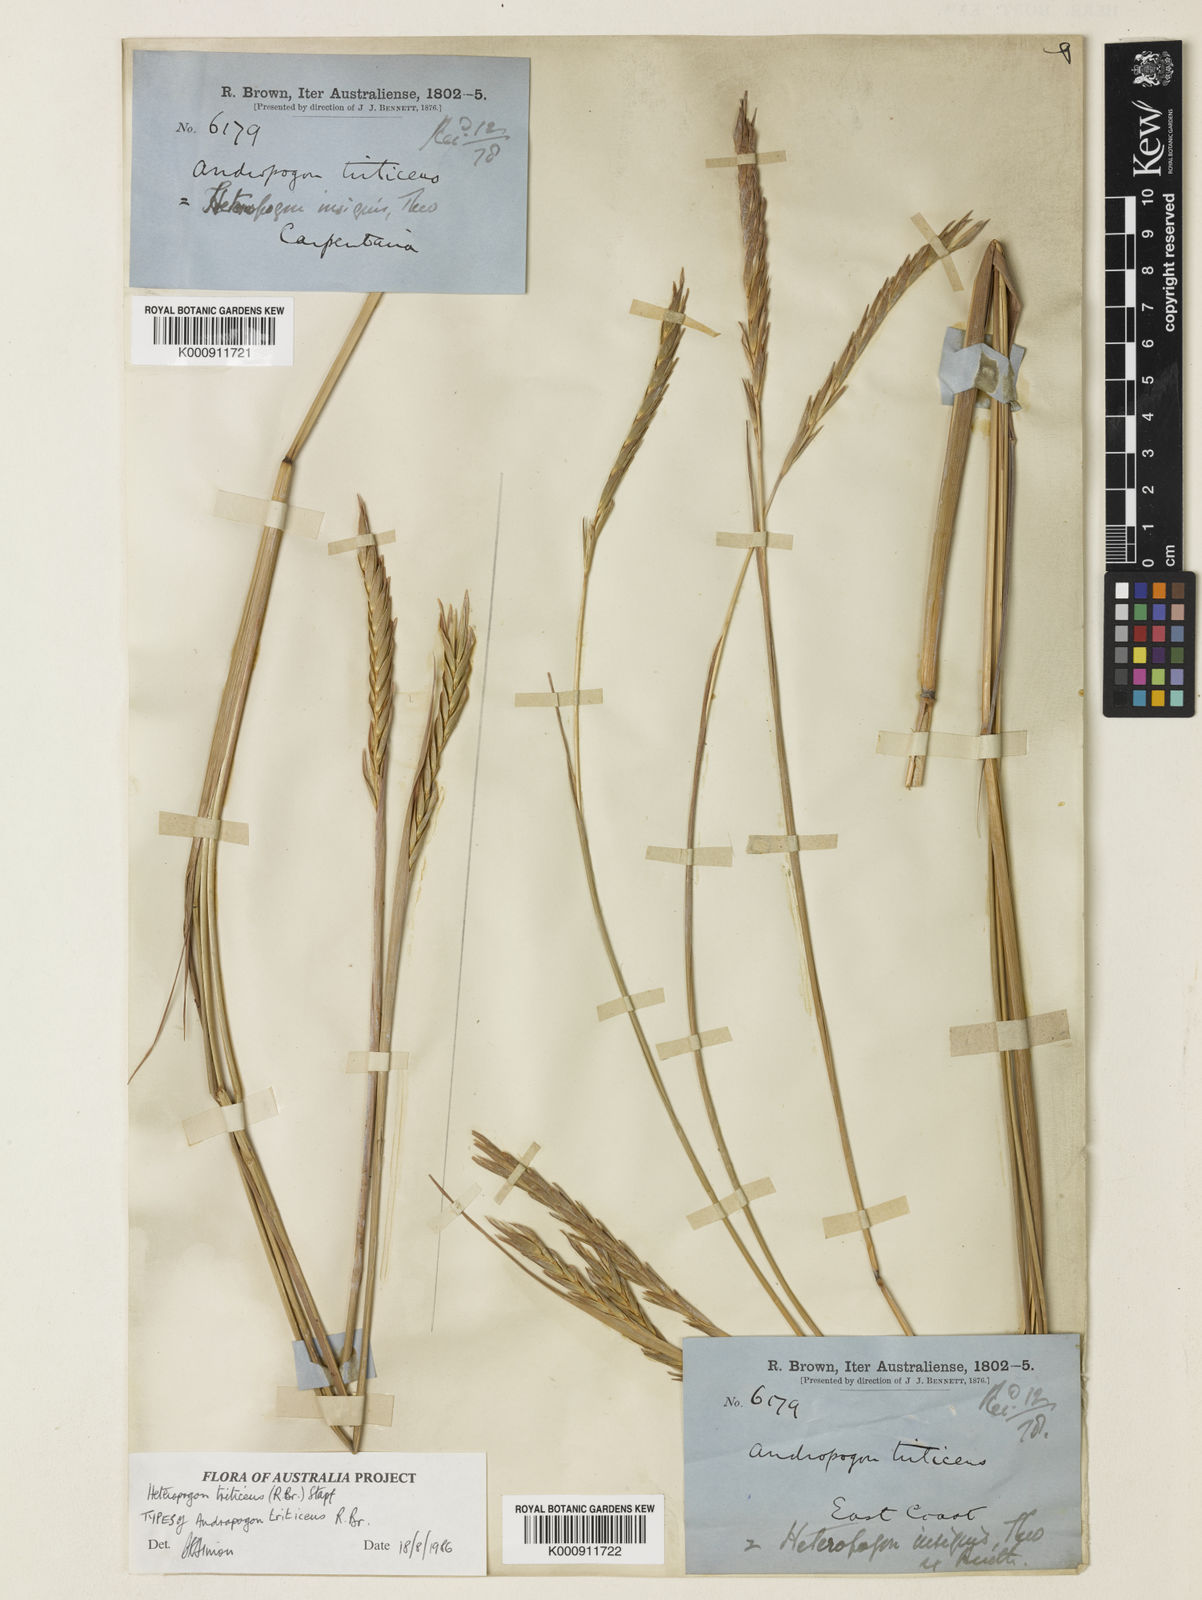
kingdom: Plantae
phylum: Tracheophyta
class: Liliopsida
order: Poales
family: Poaceae
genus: Heteropogon
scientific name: Heteropogon triticeus
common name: Sugar grass
